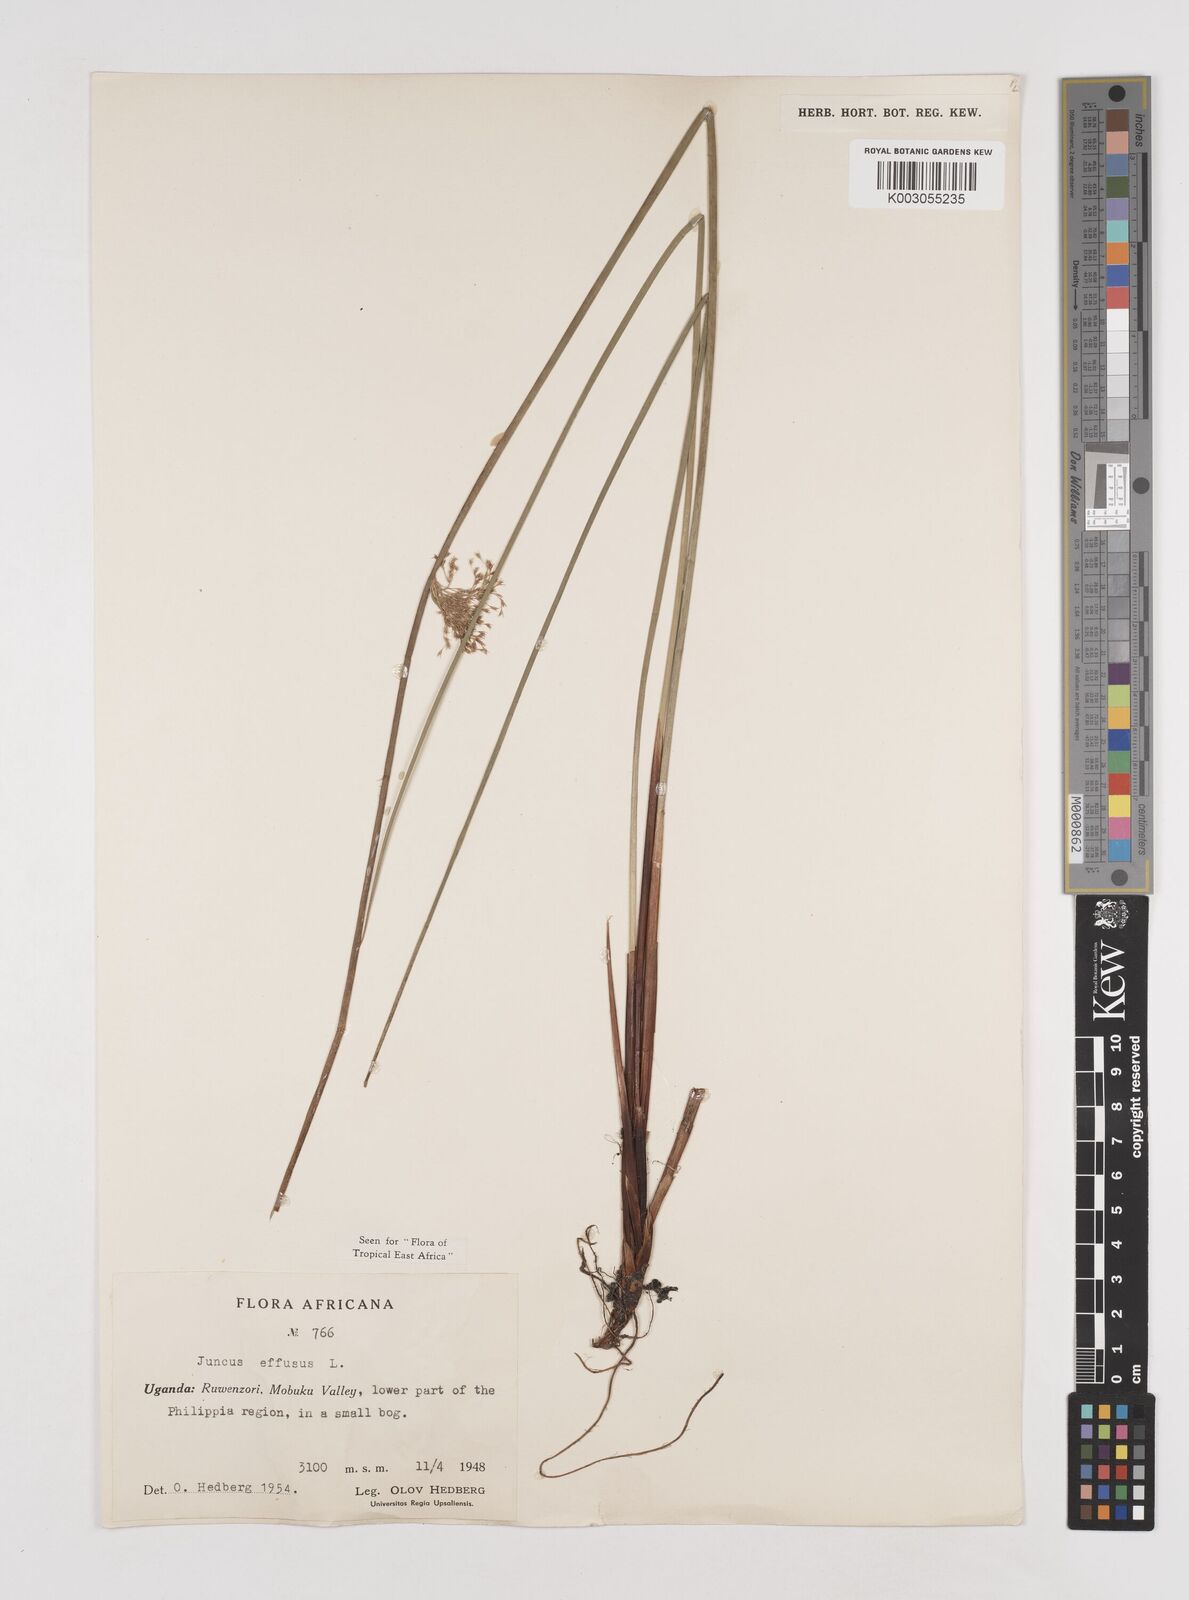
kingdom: Plantae
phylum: Tracheophyta
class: Liliopsida
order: Poales
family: Juncaceae
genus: Juncus
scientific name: Juncus effusus
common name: Soft rush
